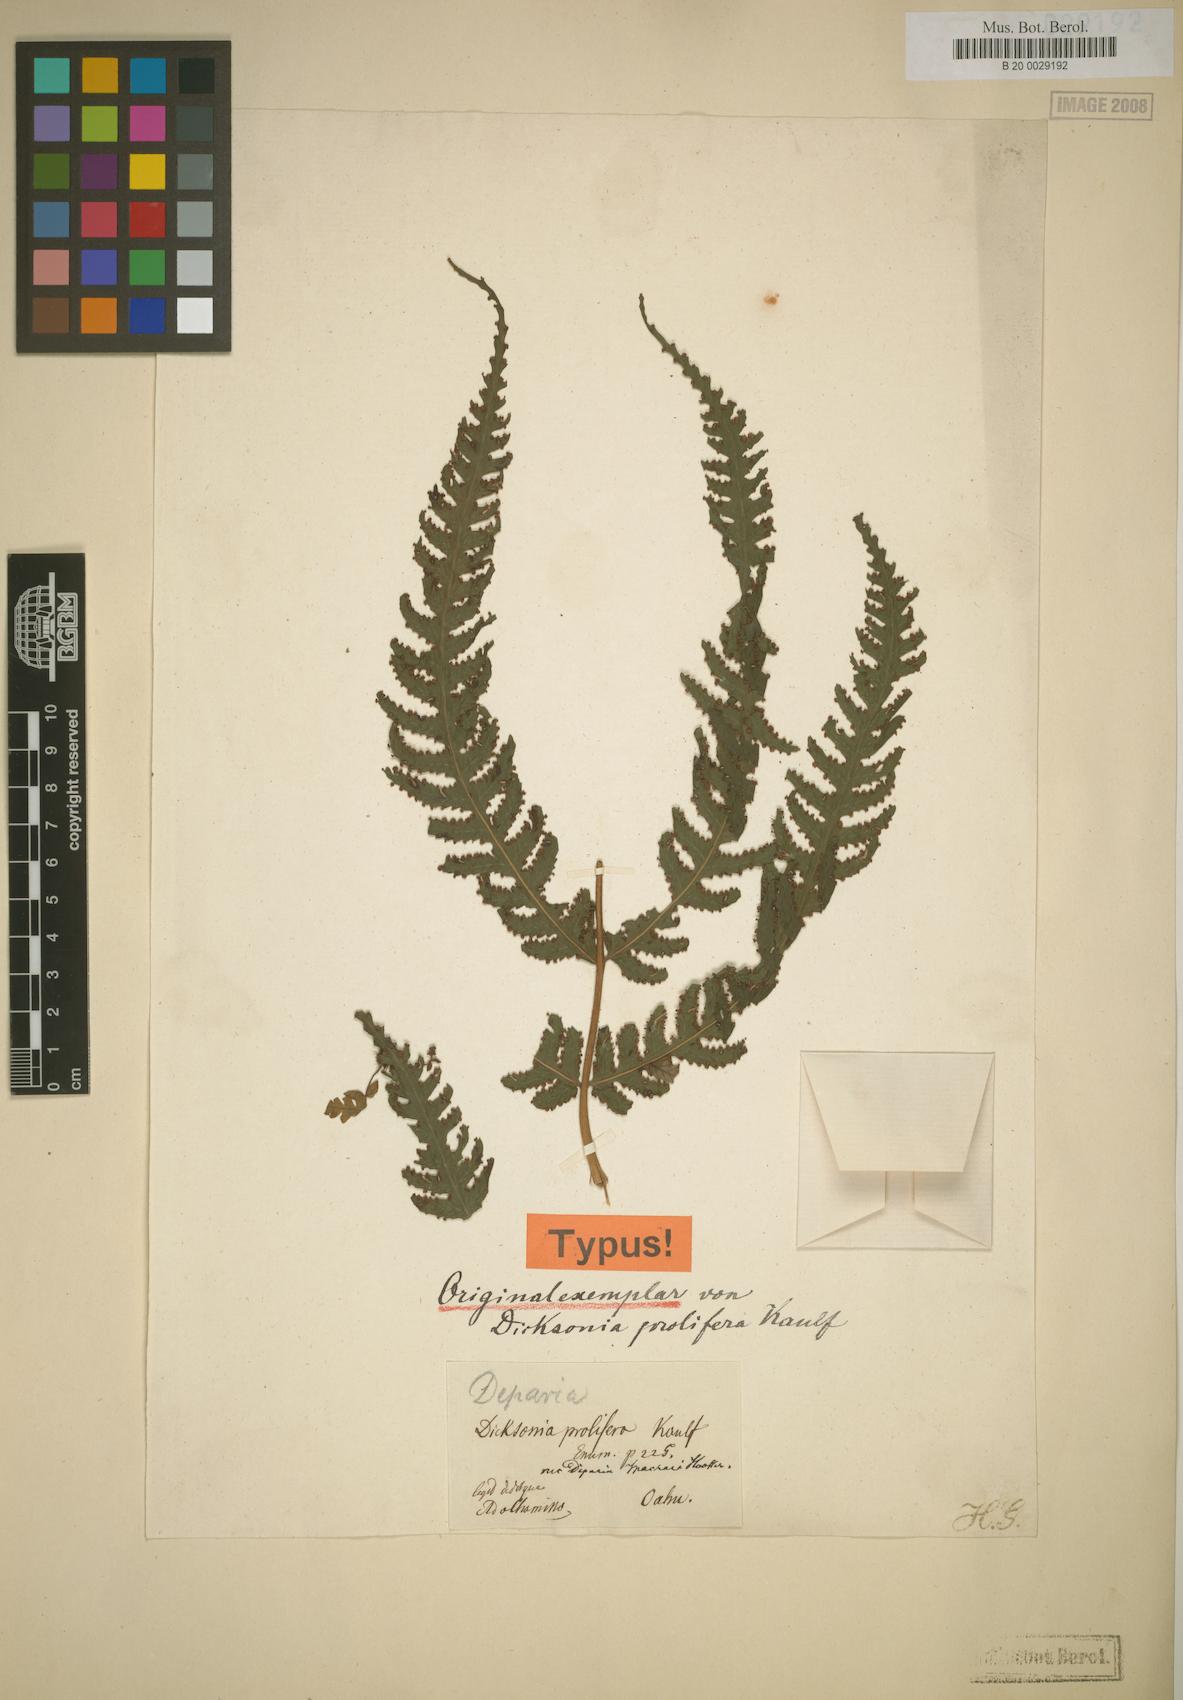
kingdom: Plantae
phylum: Tracheophyta
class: Polypodiopsida
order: Polypodiales
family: Athyriaceae
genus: Deparia
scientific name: Deparia prolifera
